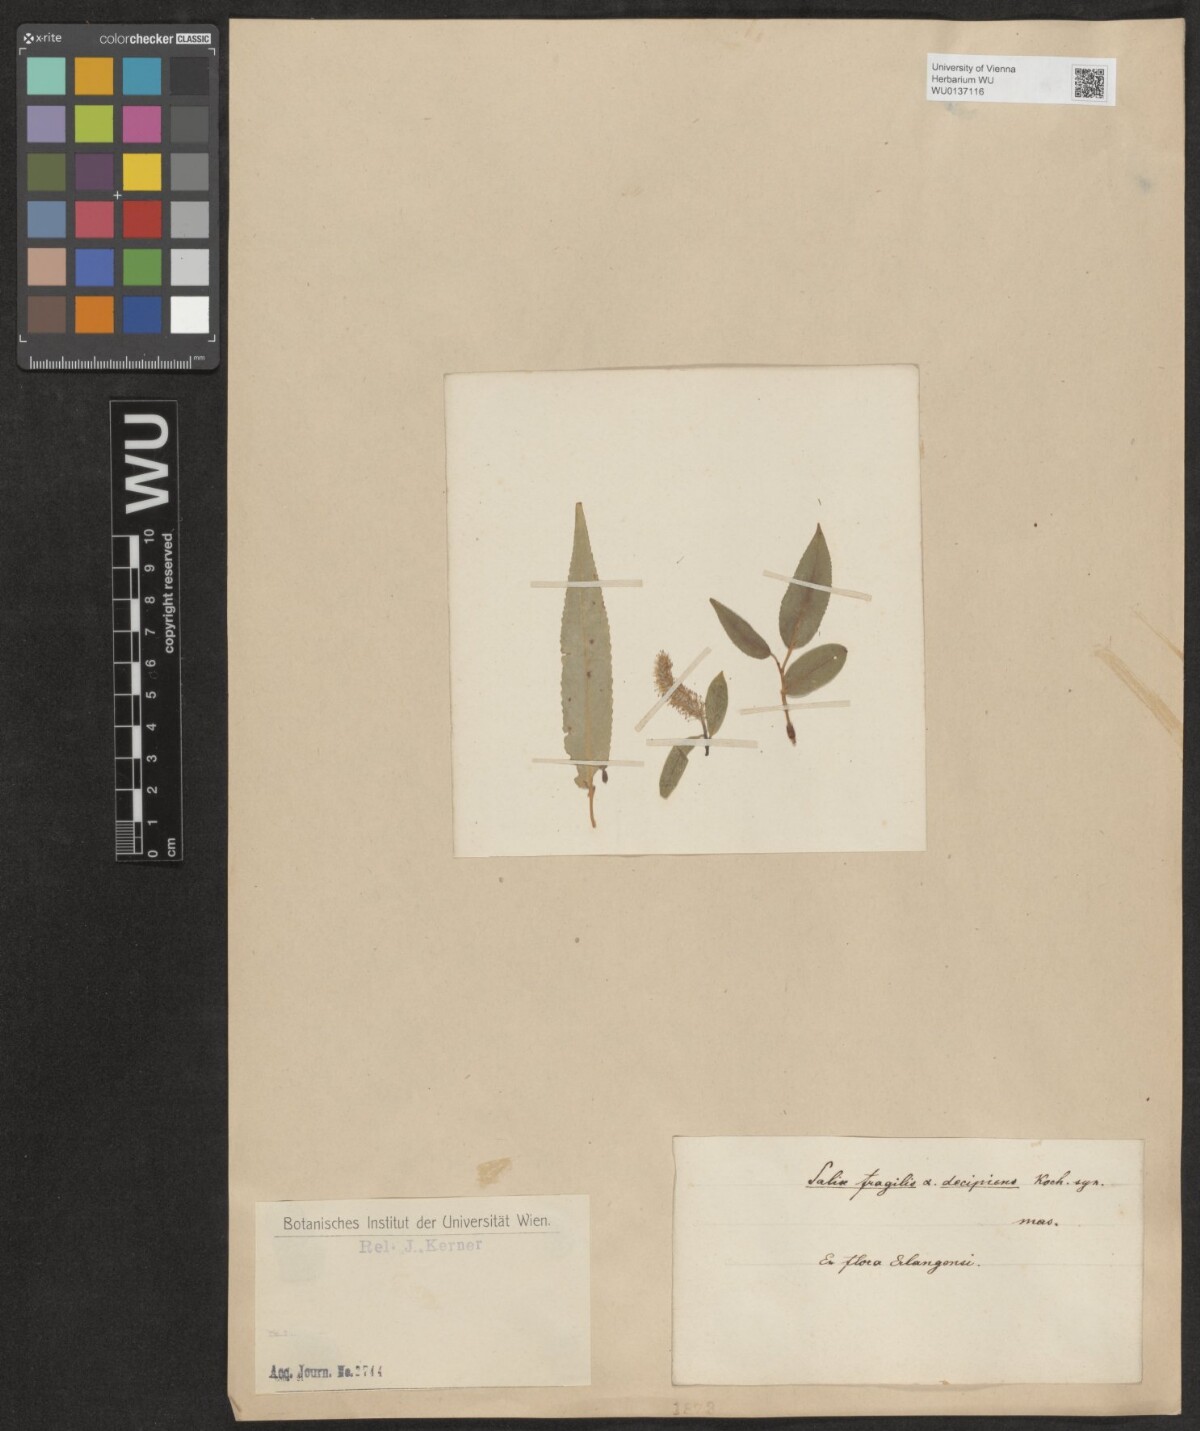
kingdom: Plantae
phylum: Tracheophyta
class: Magnoliopsida
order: Malpighiales
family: Salicaceae
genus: Salix
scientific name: Salix fragilis
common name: Crack willow
